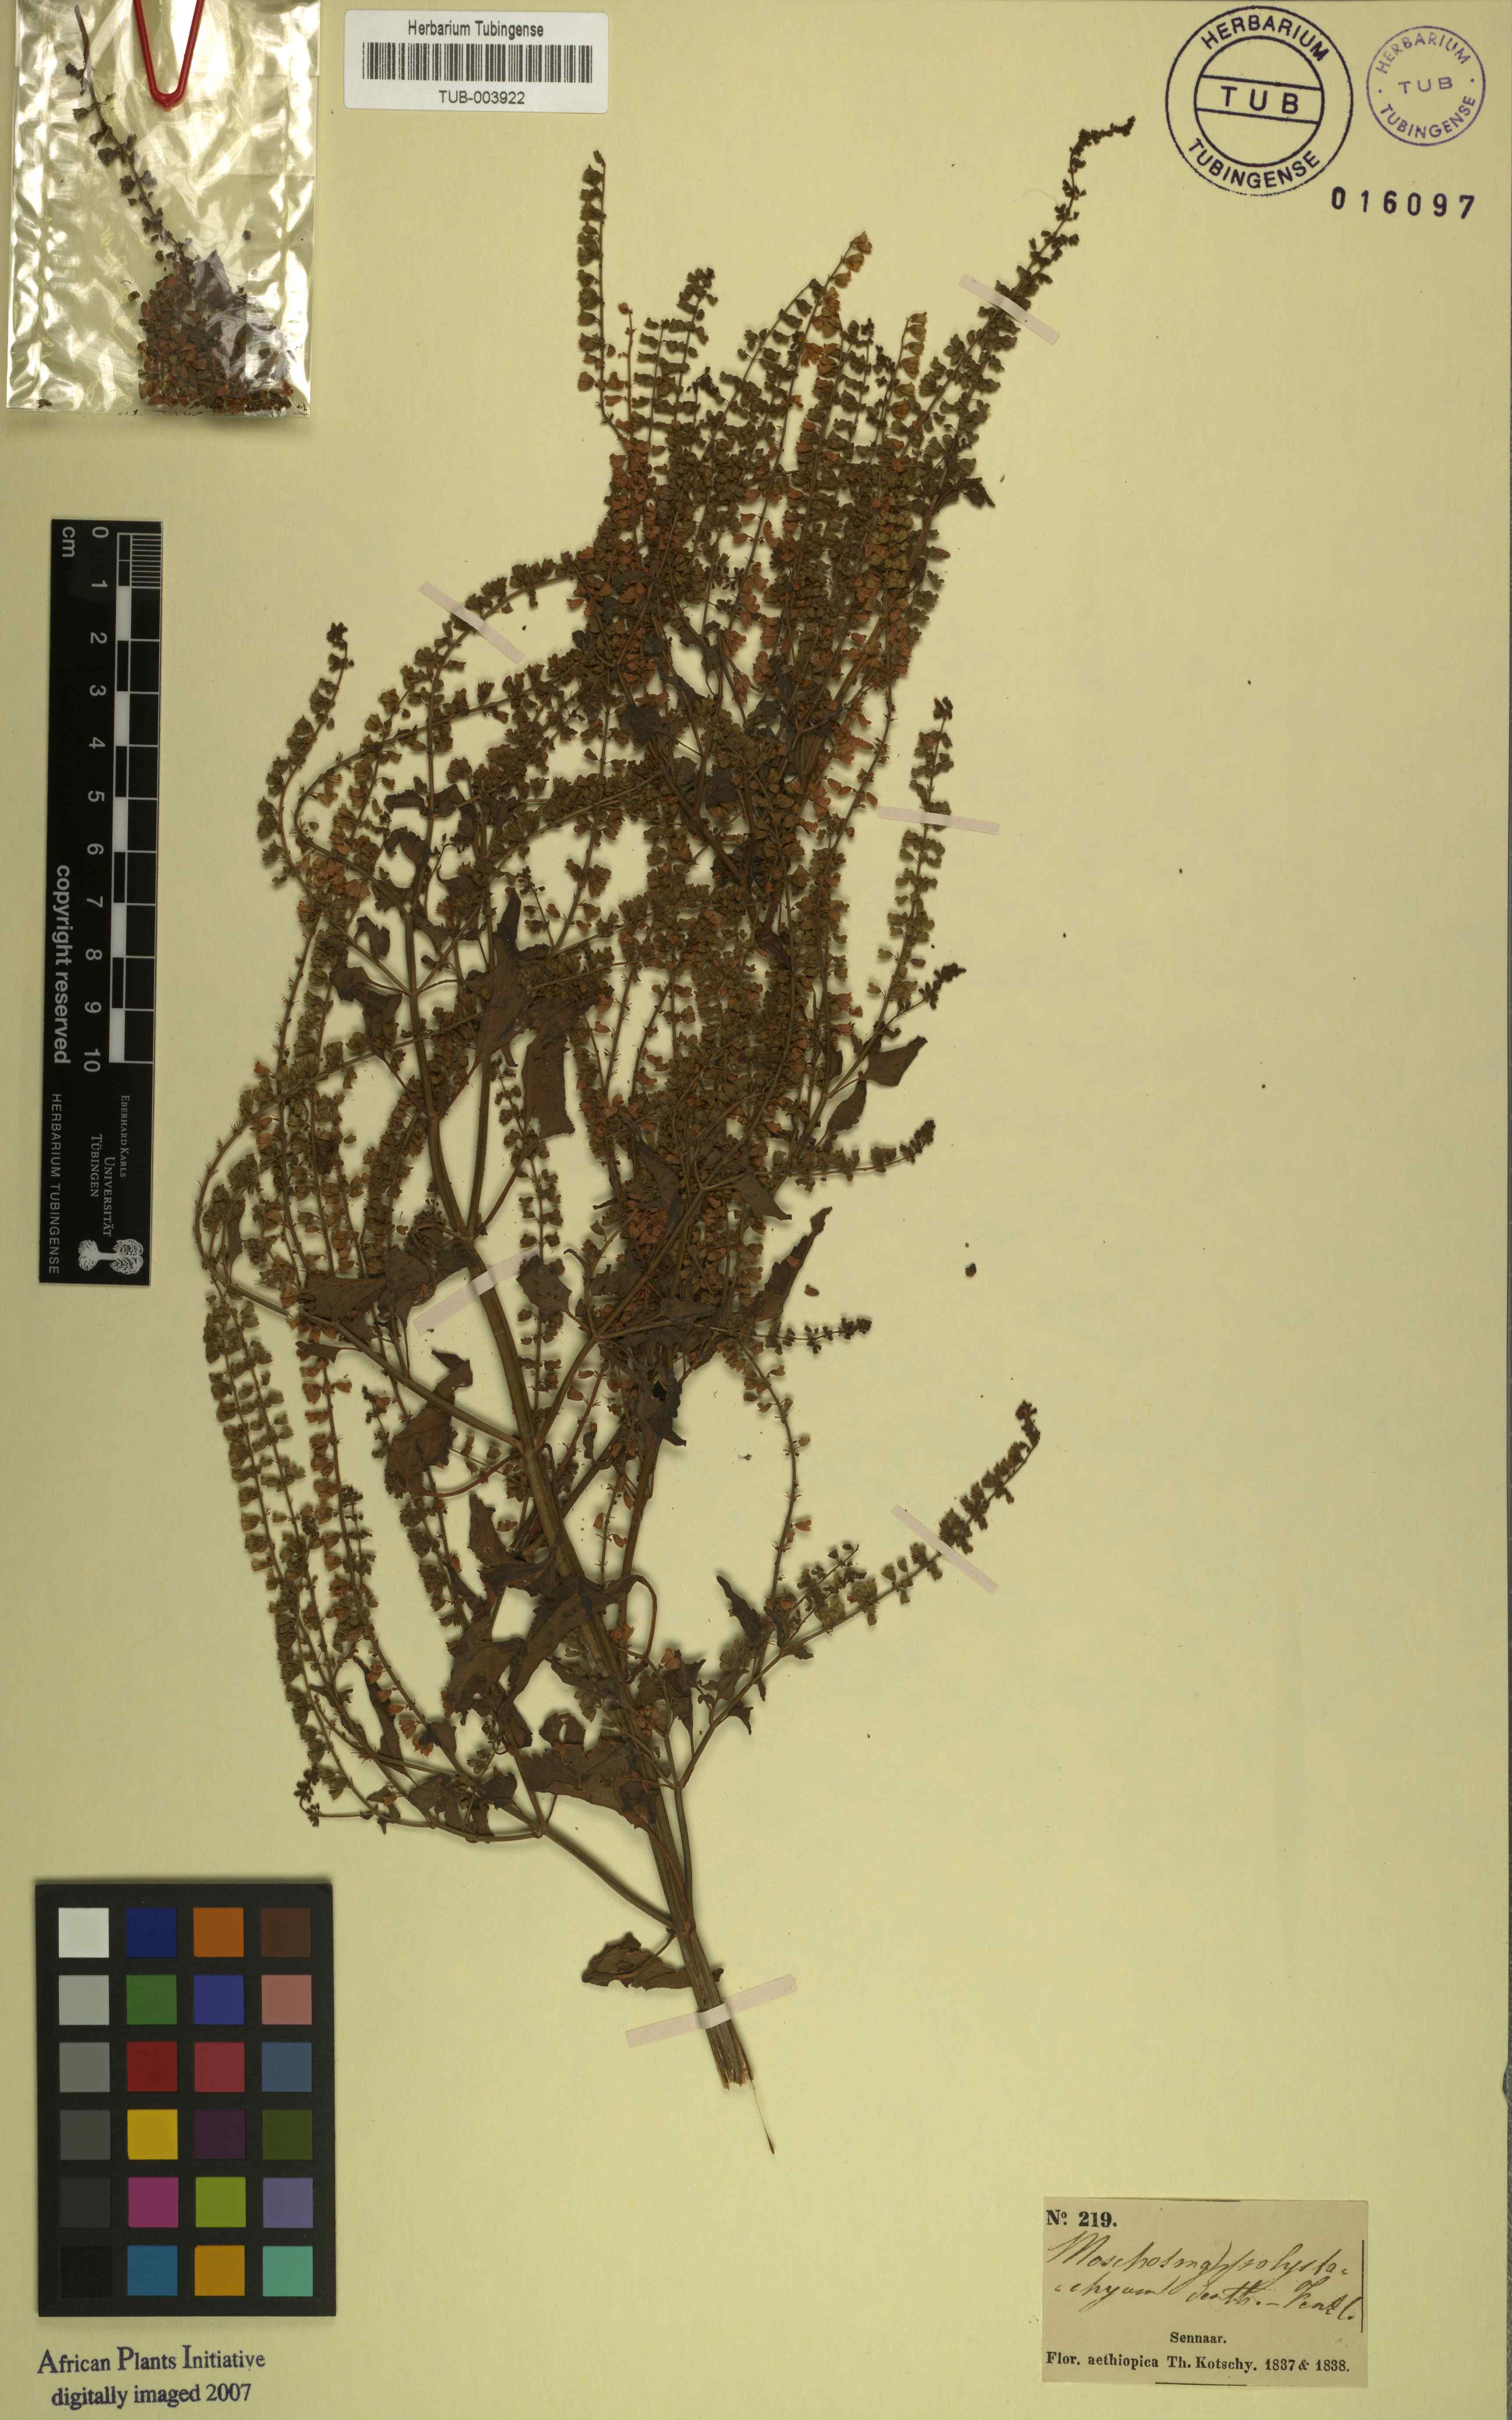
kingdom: Plantae
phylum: Tracheophyta
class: Magnoliopsida
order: Lamiales
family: Lamiaceae
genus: Basilicum
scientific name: Basilicum polystachyon
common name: Musk-basil
